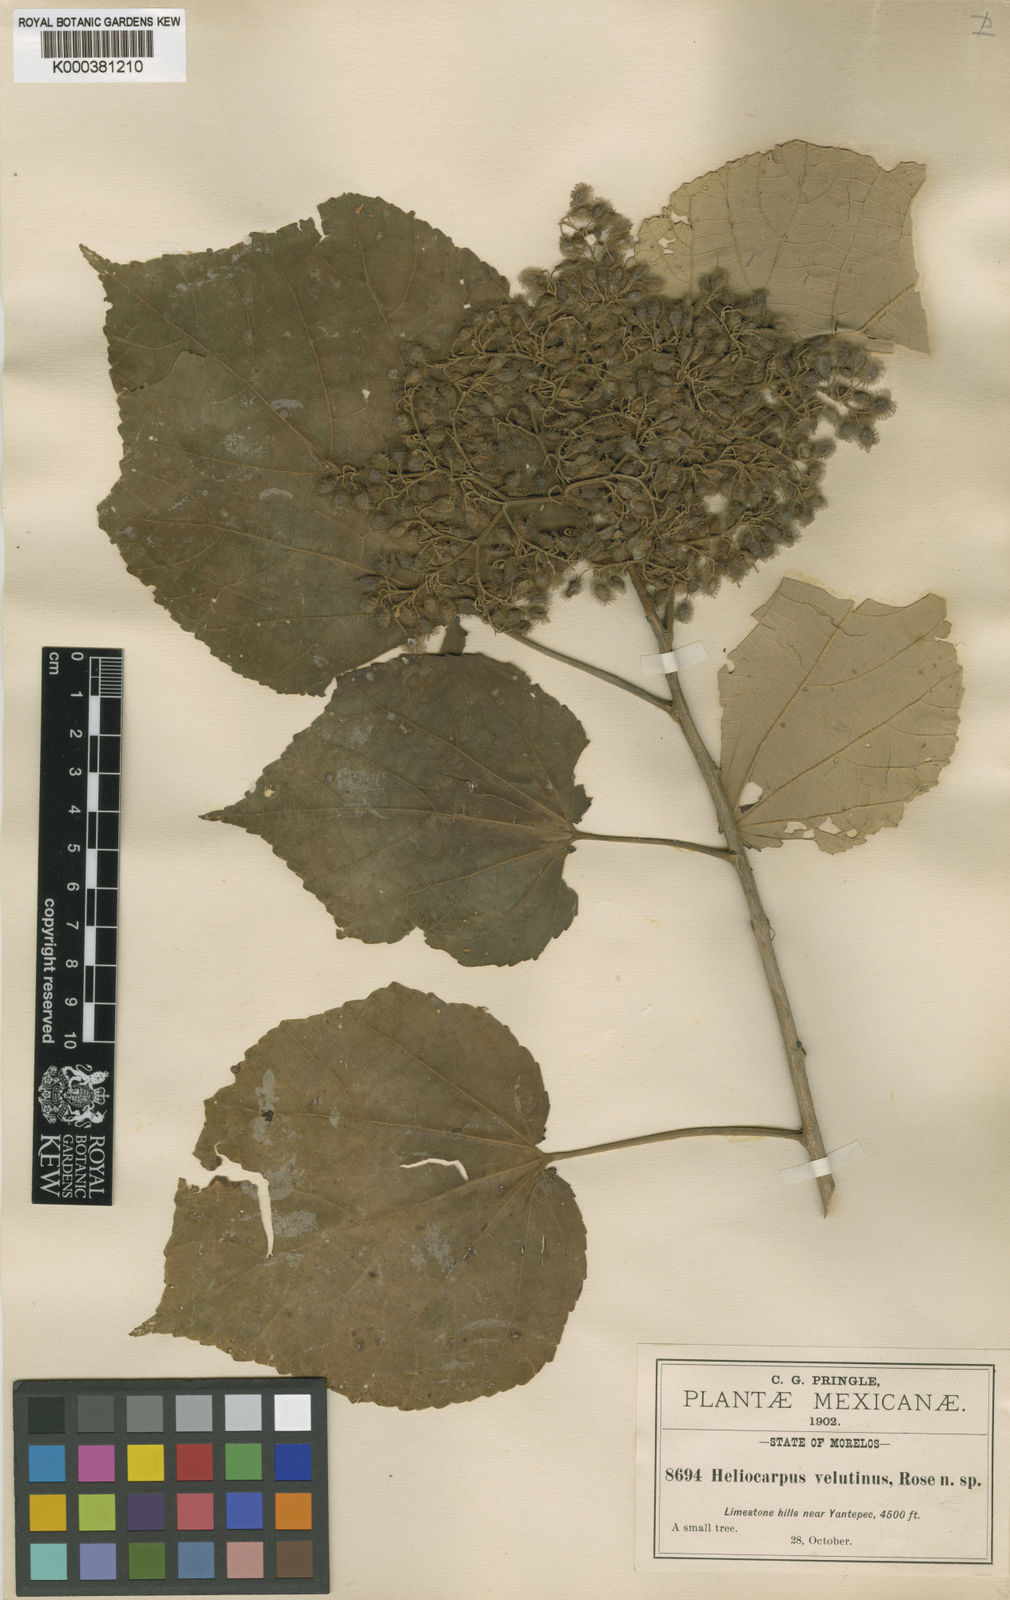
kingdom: Plantae
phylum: Tracheophyta
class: Magnoliopsida
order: Malvales
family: Malvaceae
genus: Heliocarpus
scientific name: Heliocarpus pallidus
